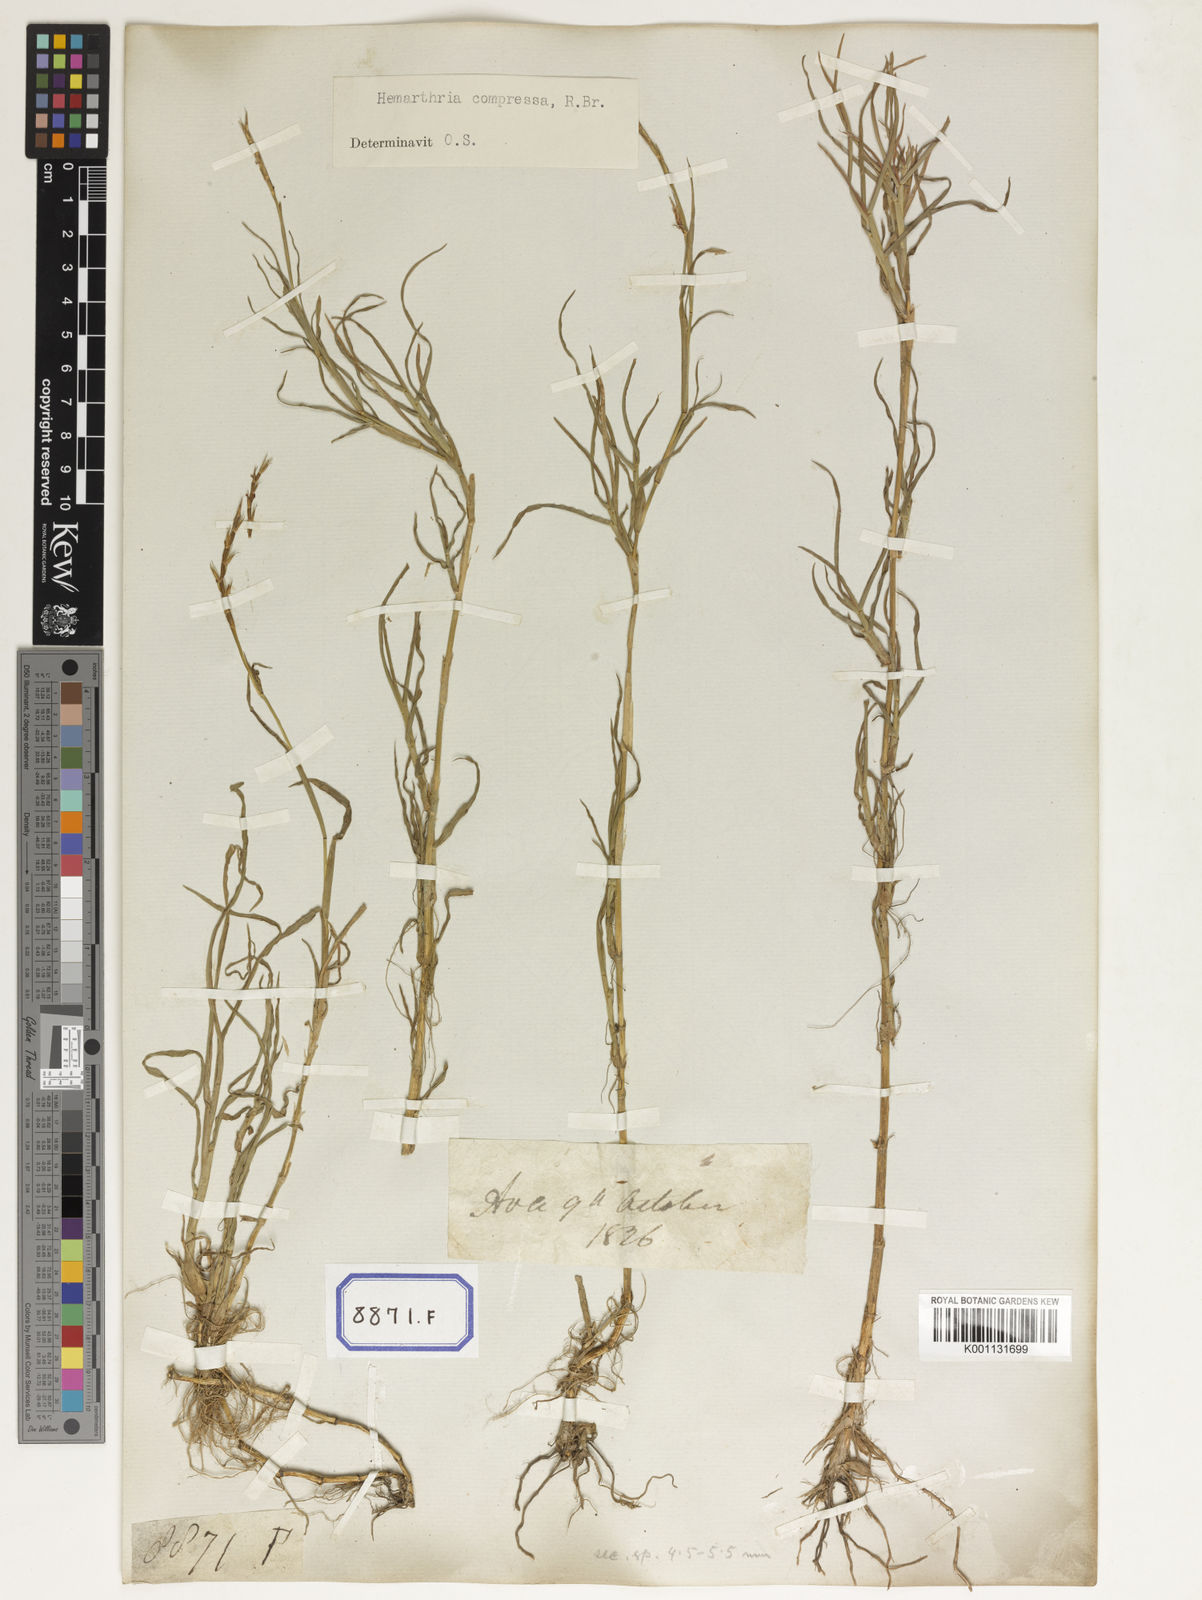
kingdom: Plantae
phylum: Tracheophyta
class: Liliopsida
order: Poales
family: Poaceae
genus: Hemarthria
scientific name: Hemarthria
